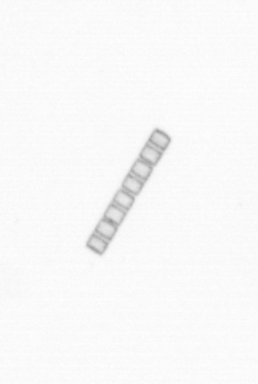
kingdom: Chromista
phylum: Ochrophyta
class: Bacillariophyceae
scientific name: Bacillariophyceae
